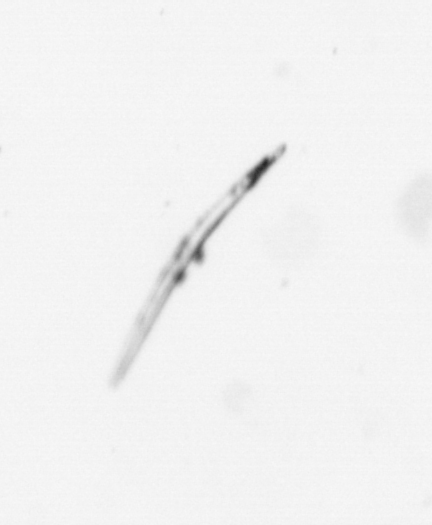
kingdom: Chromista
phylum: Ochrophyta
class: Bacillariophyceae
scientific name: Bacillariophyceae
